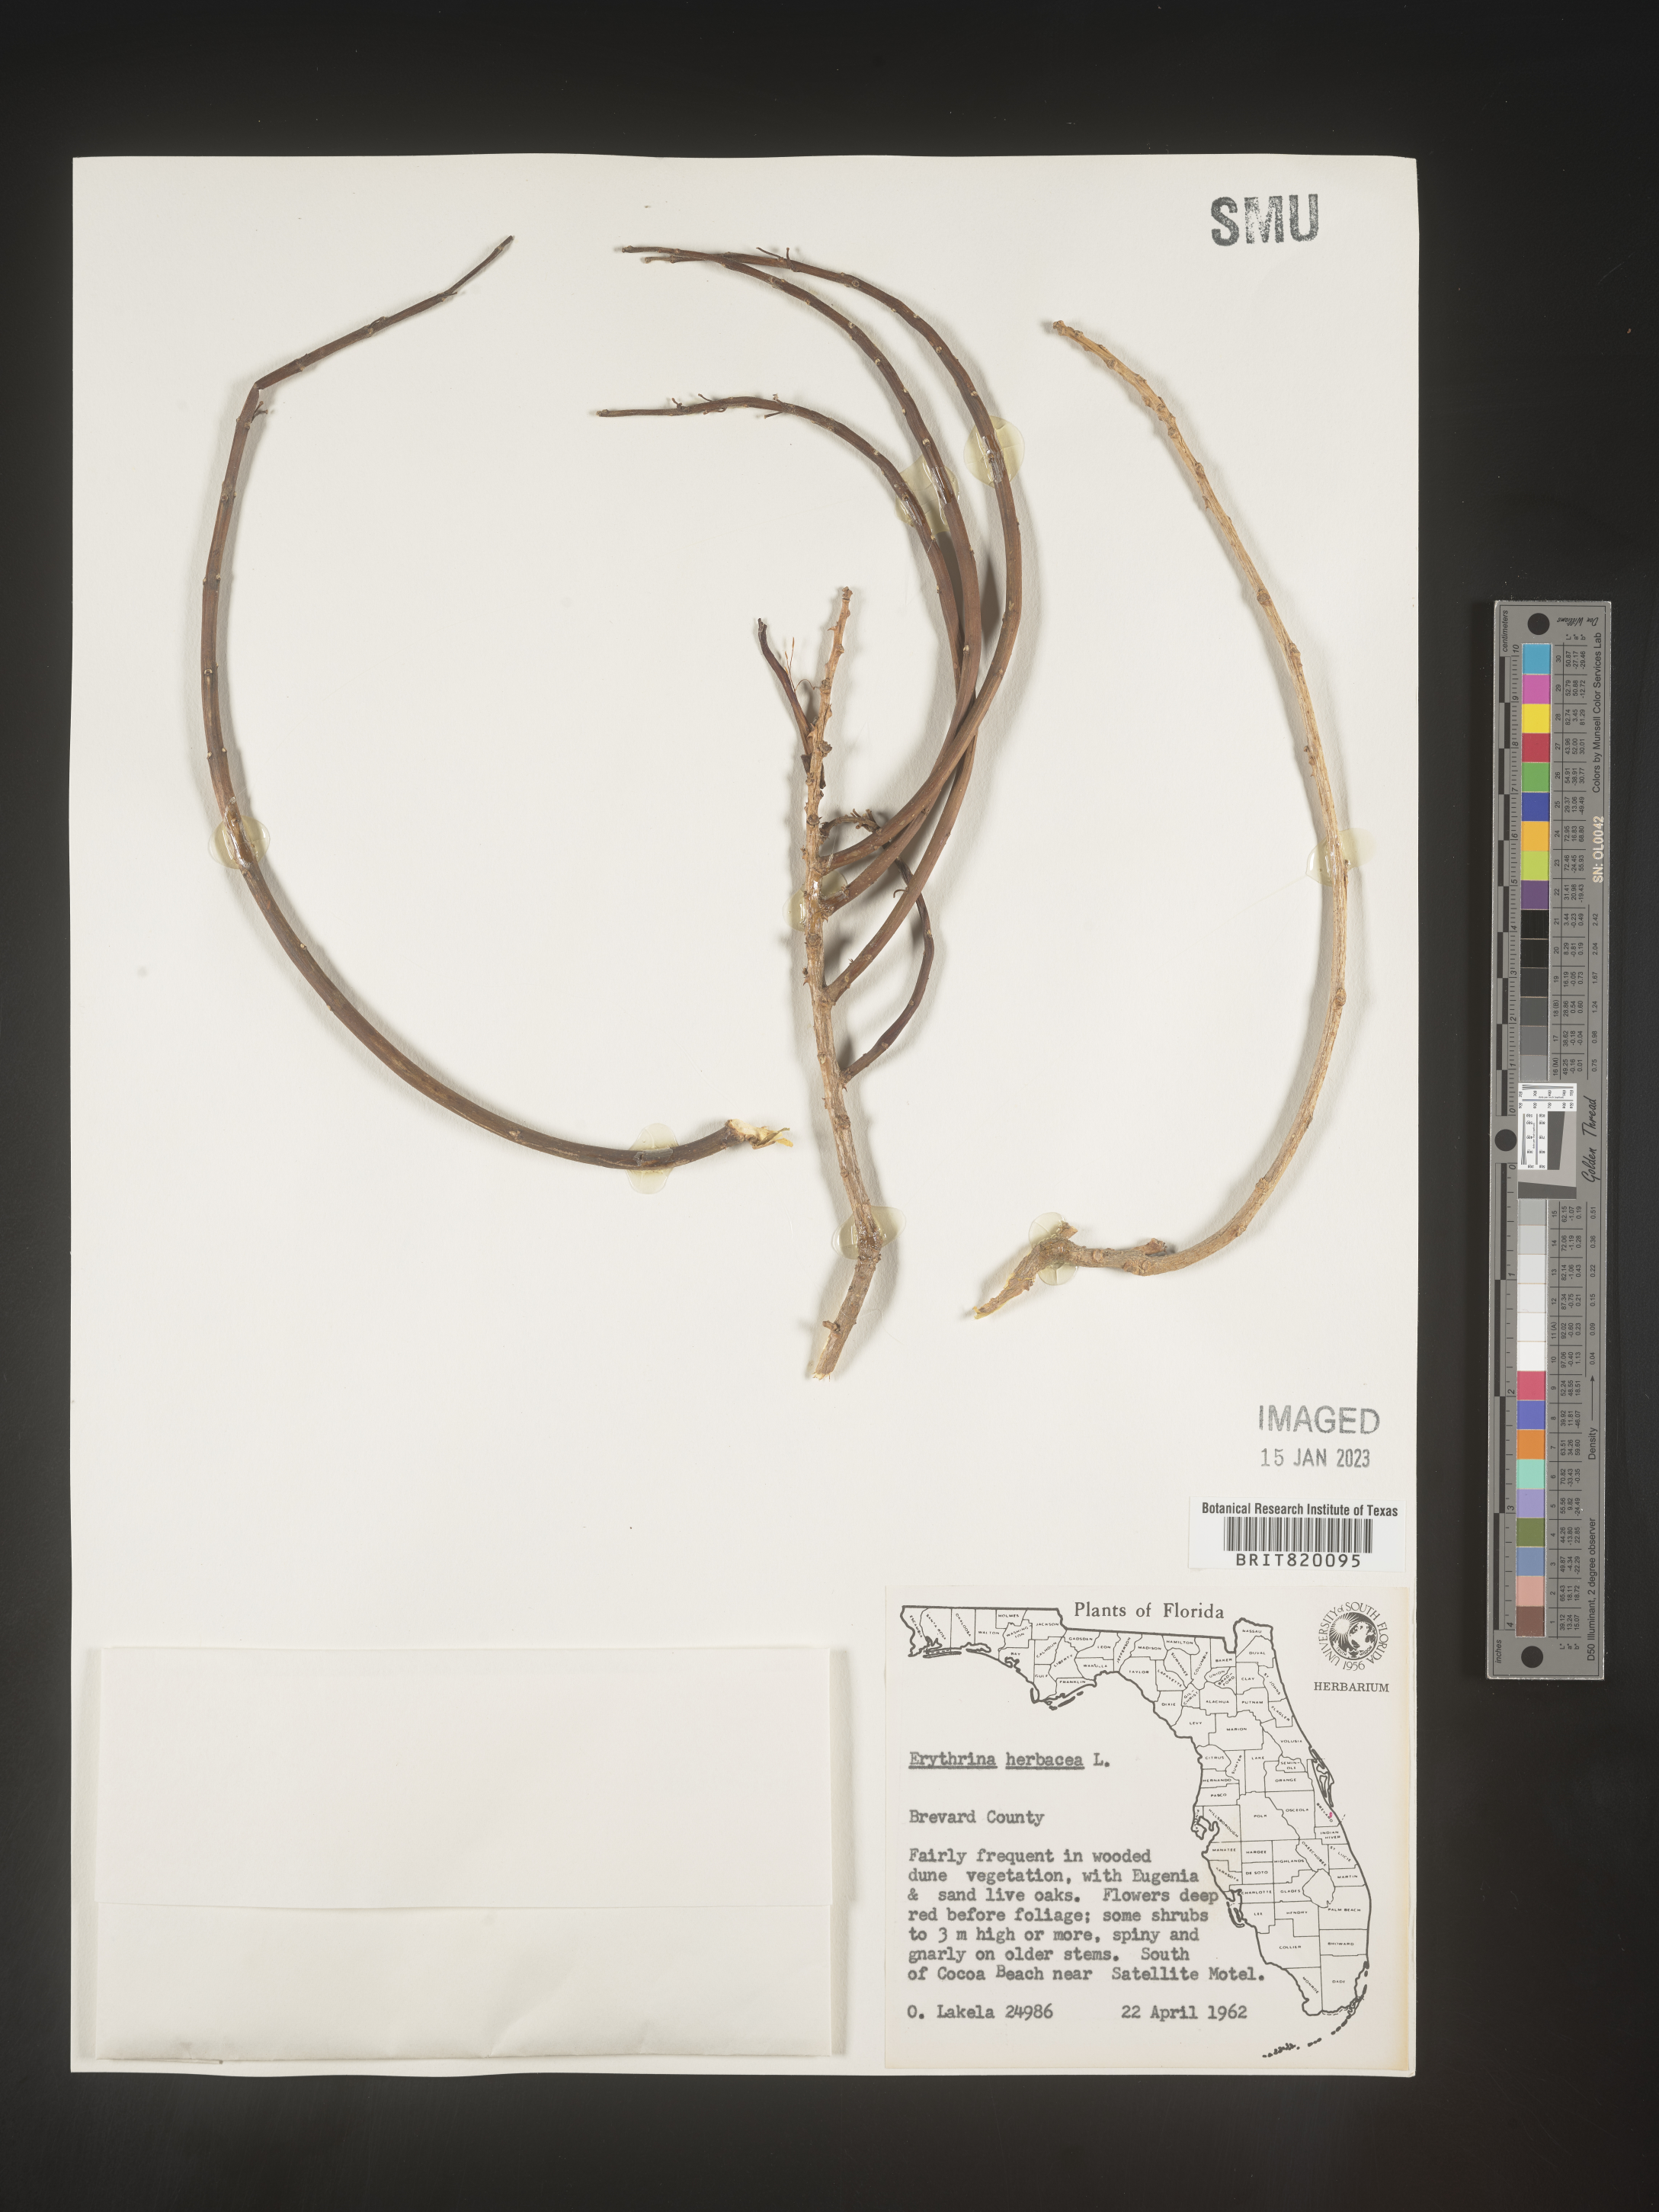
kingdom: Plantae
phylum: Tracheophyta
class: Magnoliopsida
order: Fabales
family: Fabaceae
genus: Erythrina
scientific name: Erythrina herbacea
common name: Coral-bean
